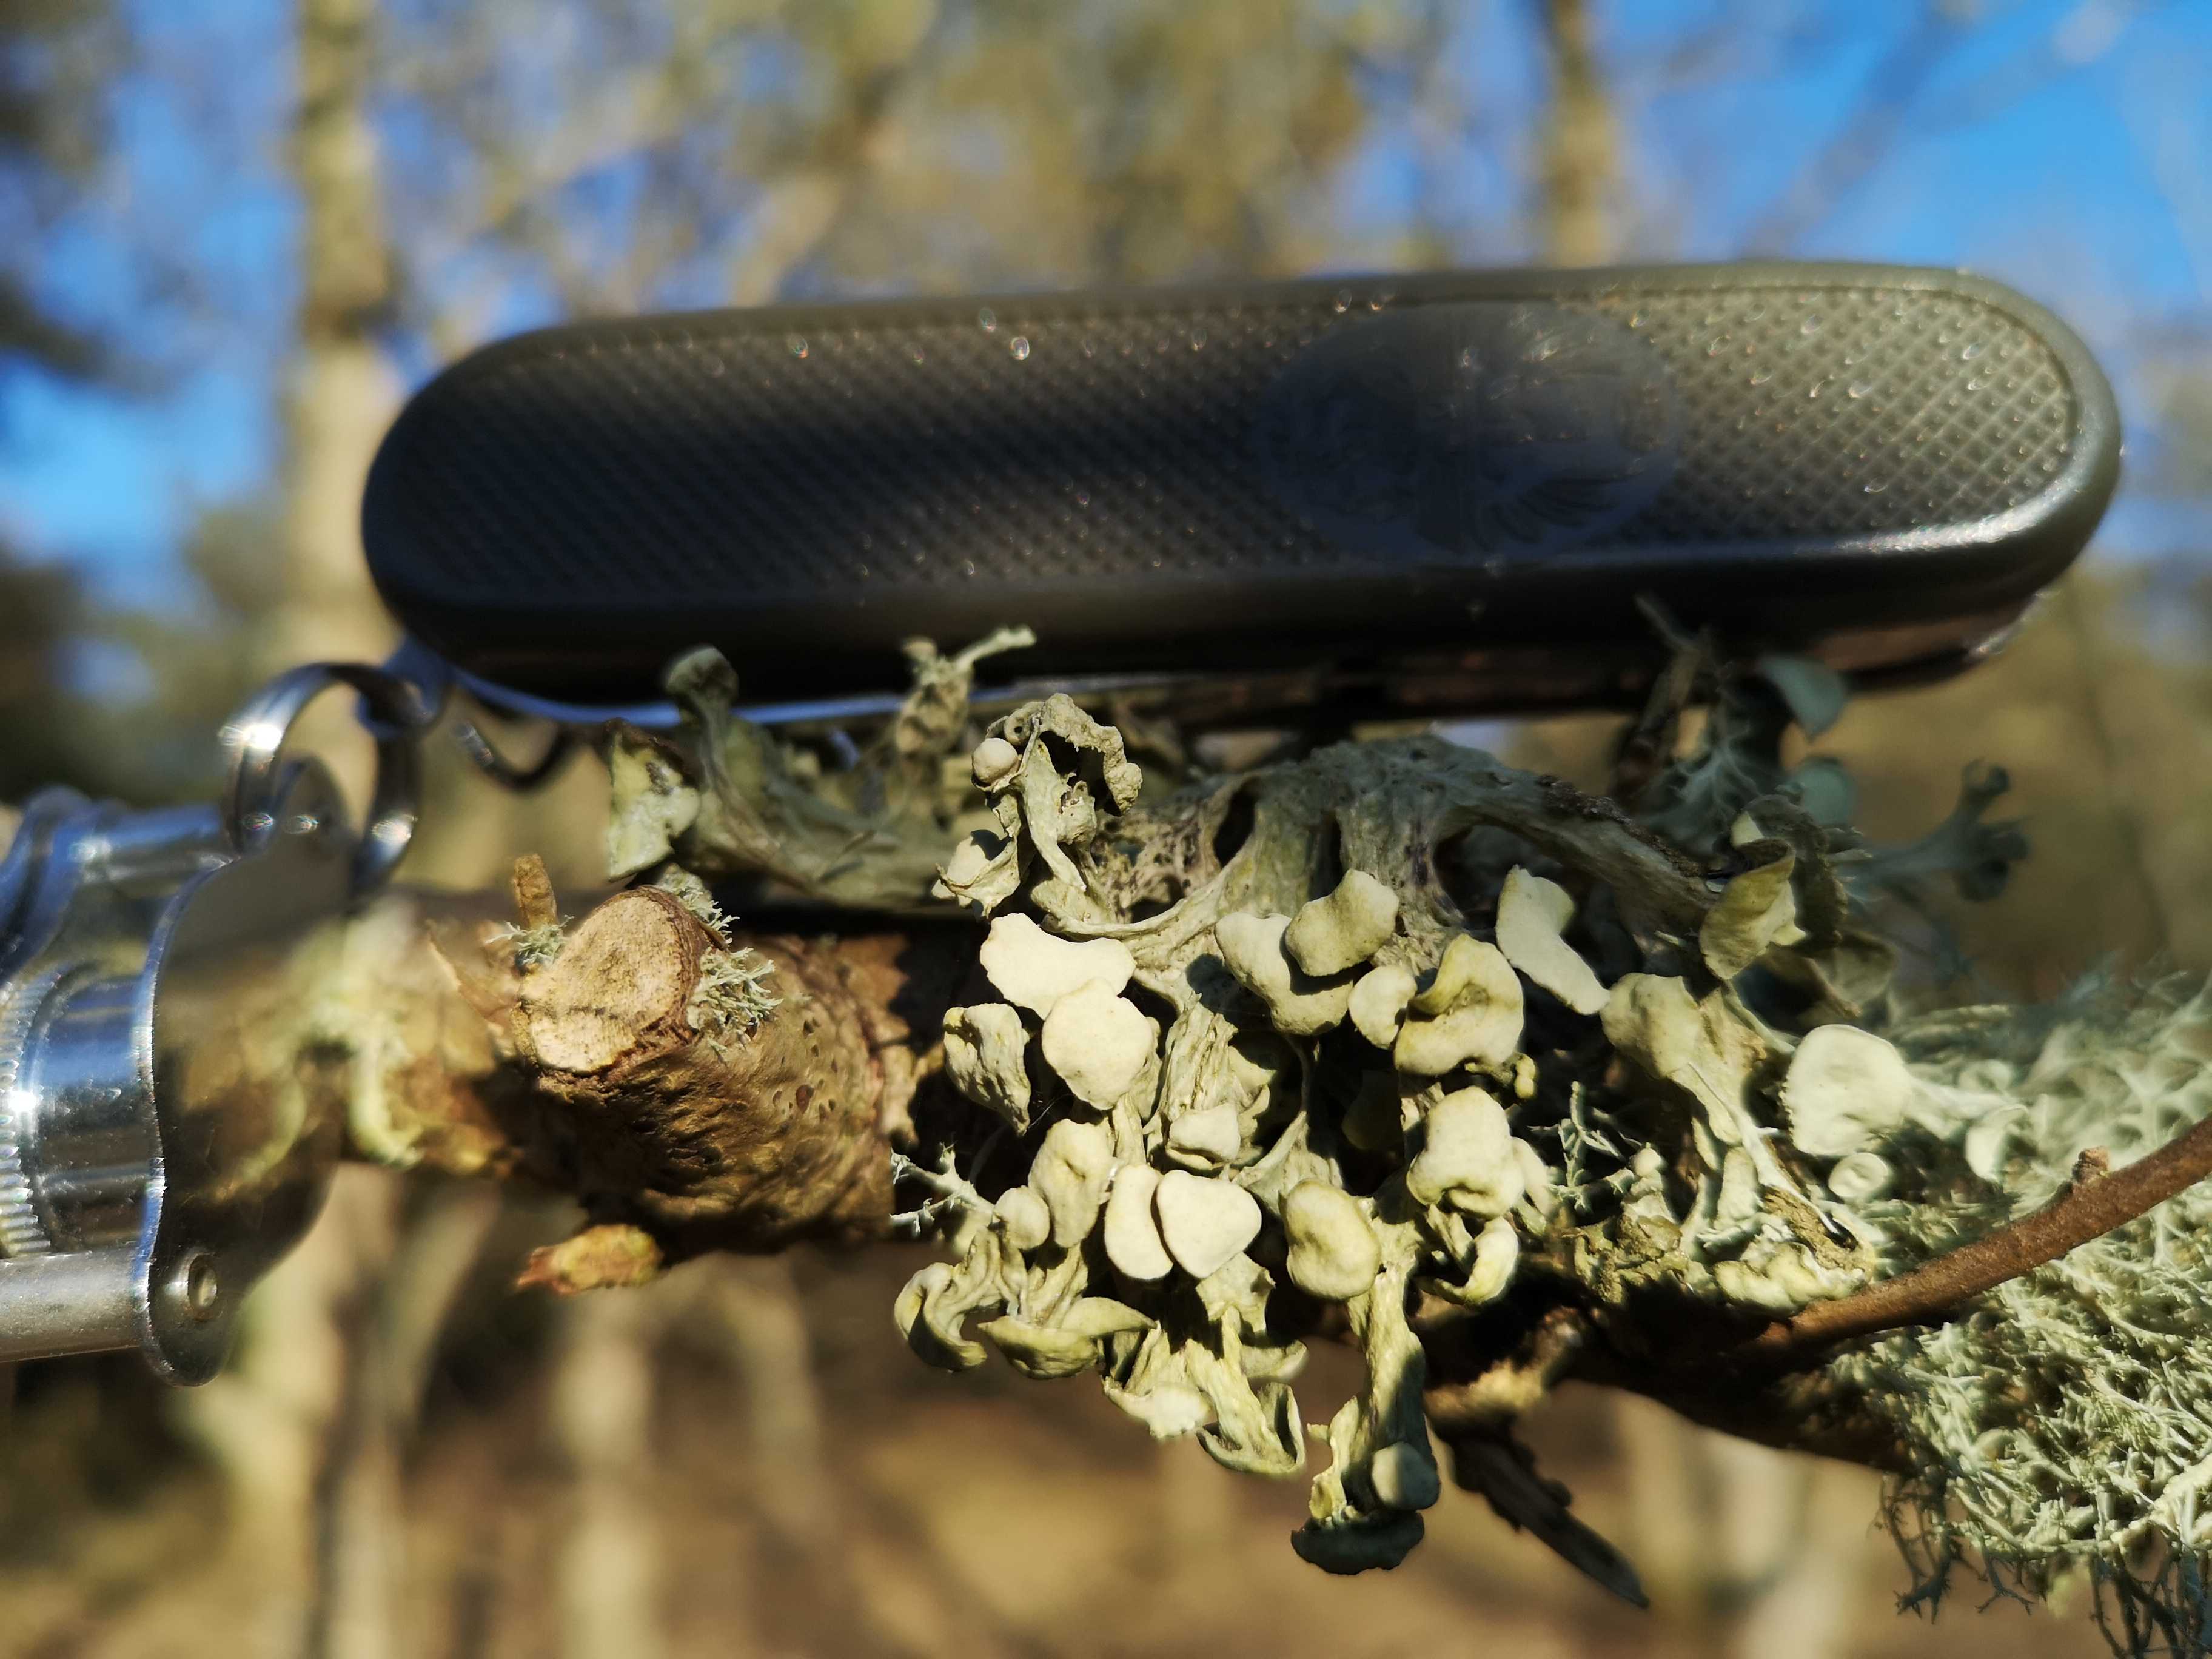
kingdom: Fungi
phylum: Ascomycota
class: Lecanoromycetes
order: Lecanorales
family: Ramalinaceae
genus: Ramalina
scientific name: Ramalina fastigiata
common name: tue-grenlav
